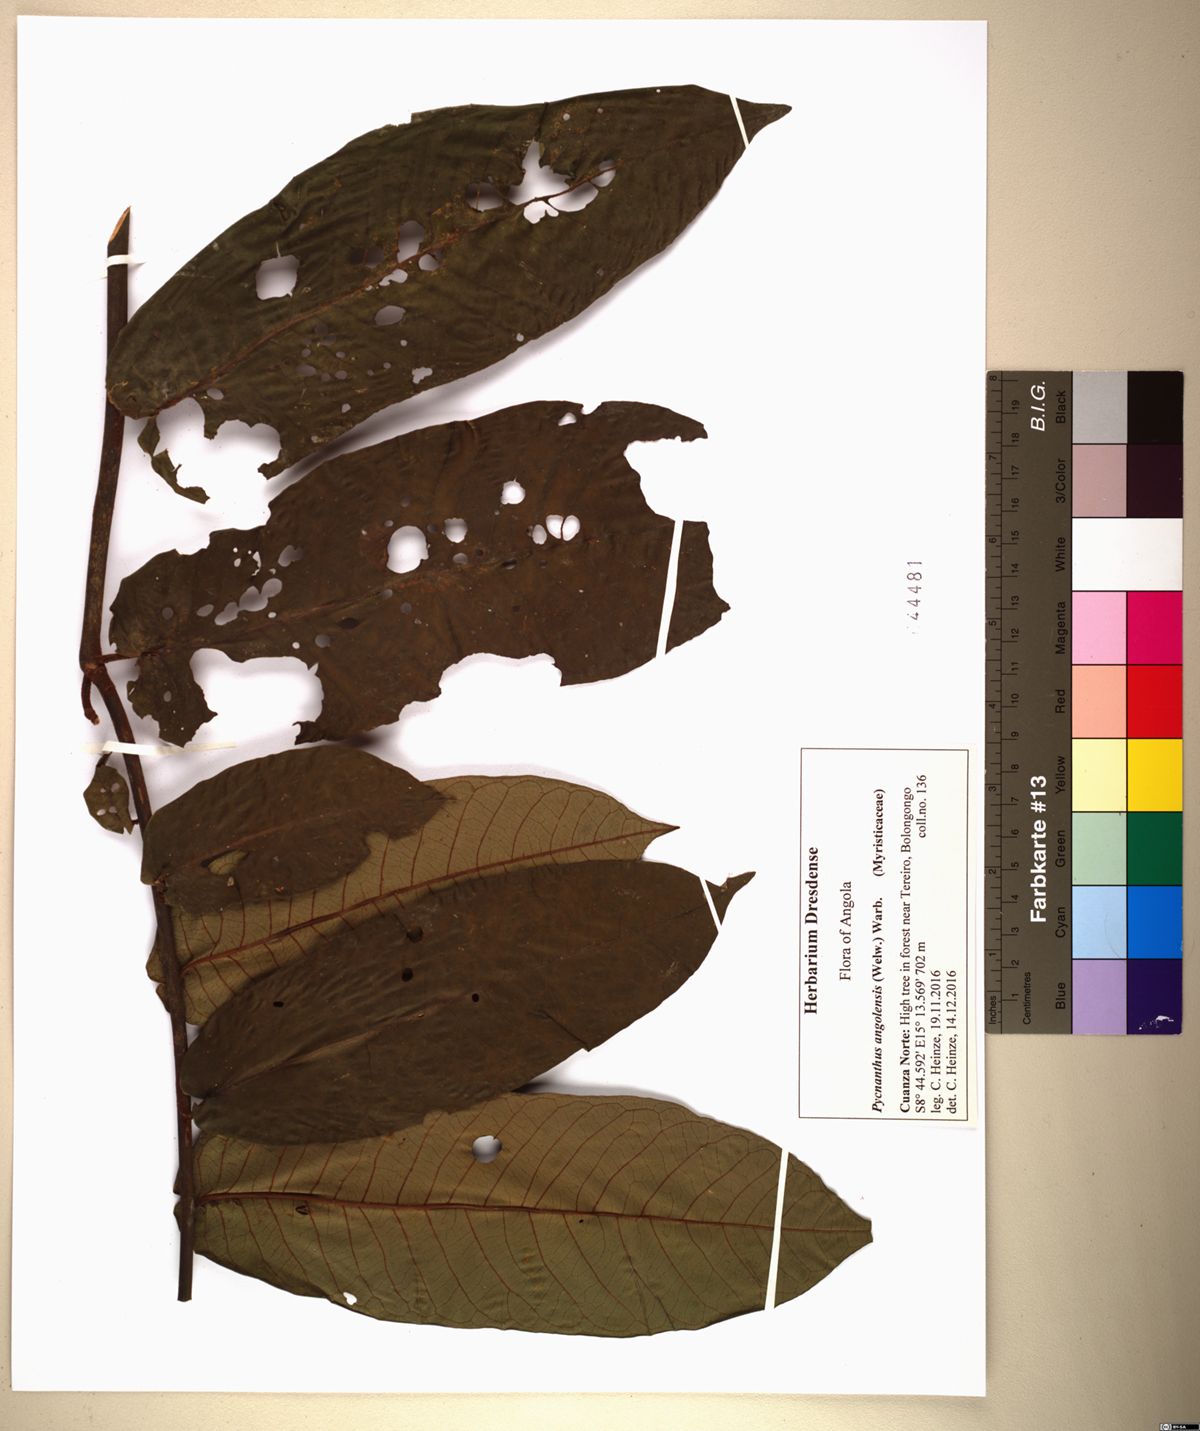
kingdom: Plantae
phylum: Tracheophyta
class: Magnoliopsida
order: Magnoliales
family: Myristicaceae
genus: Pycnanthus
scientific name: Pycnanthus angolensis
